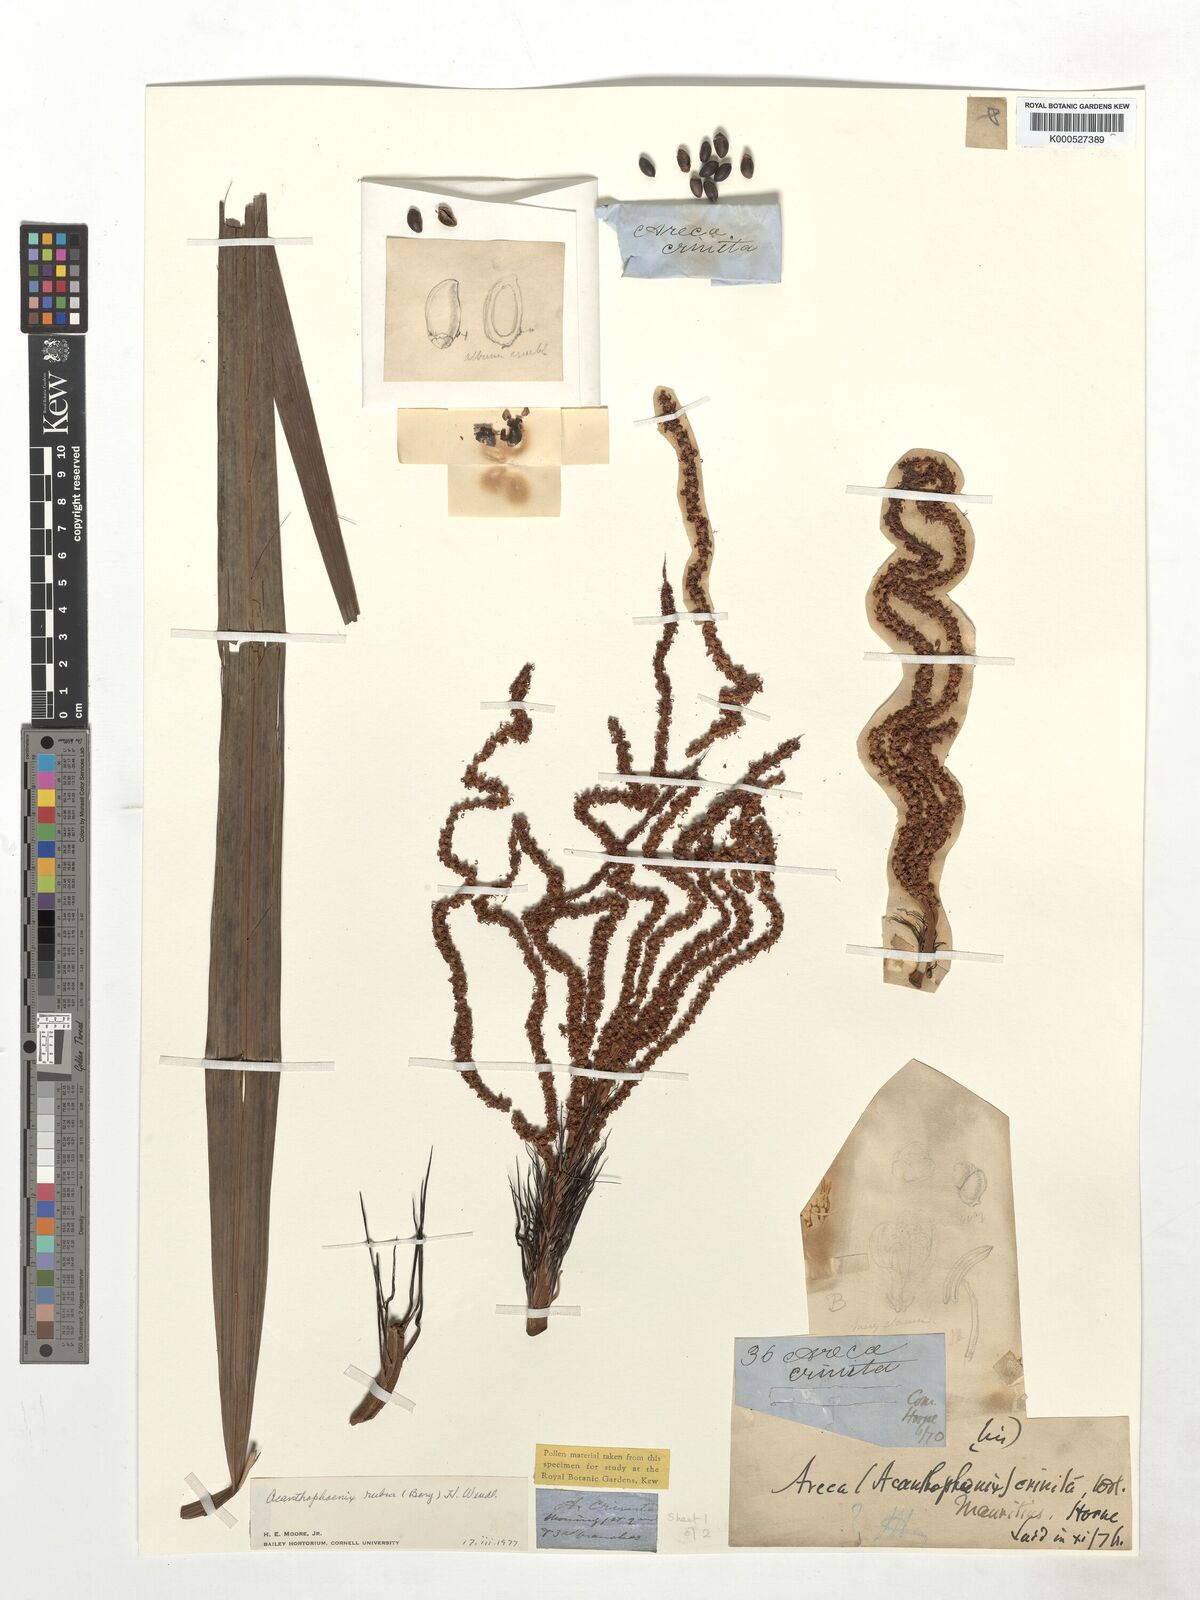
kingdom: Plantae
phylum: Tracheophyta
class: Liliopsida
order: Arecales
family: Arecaceae
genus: Acanthophoenix
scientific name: Acanthophoenix rubra
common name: Barbel palm
